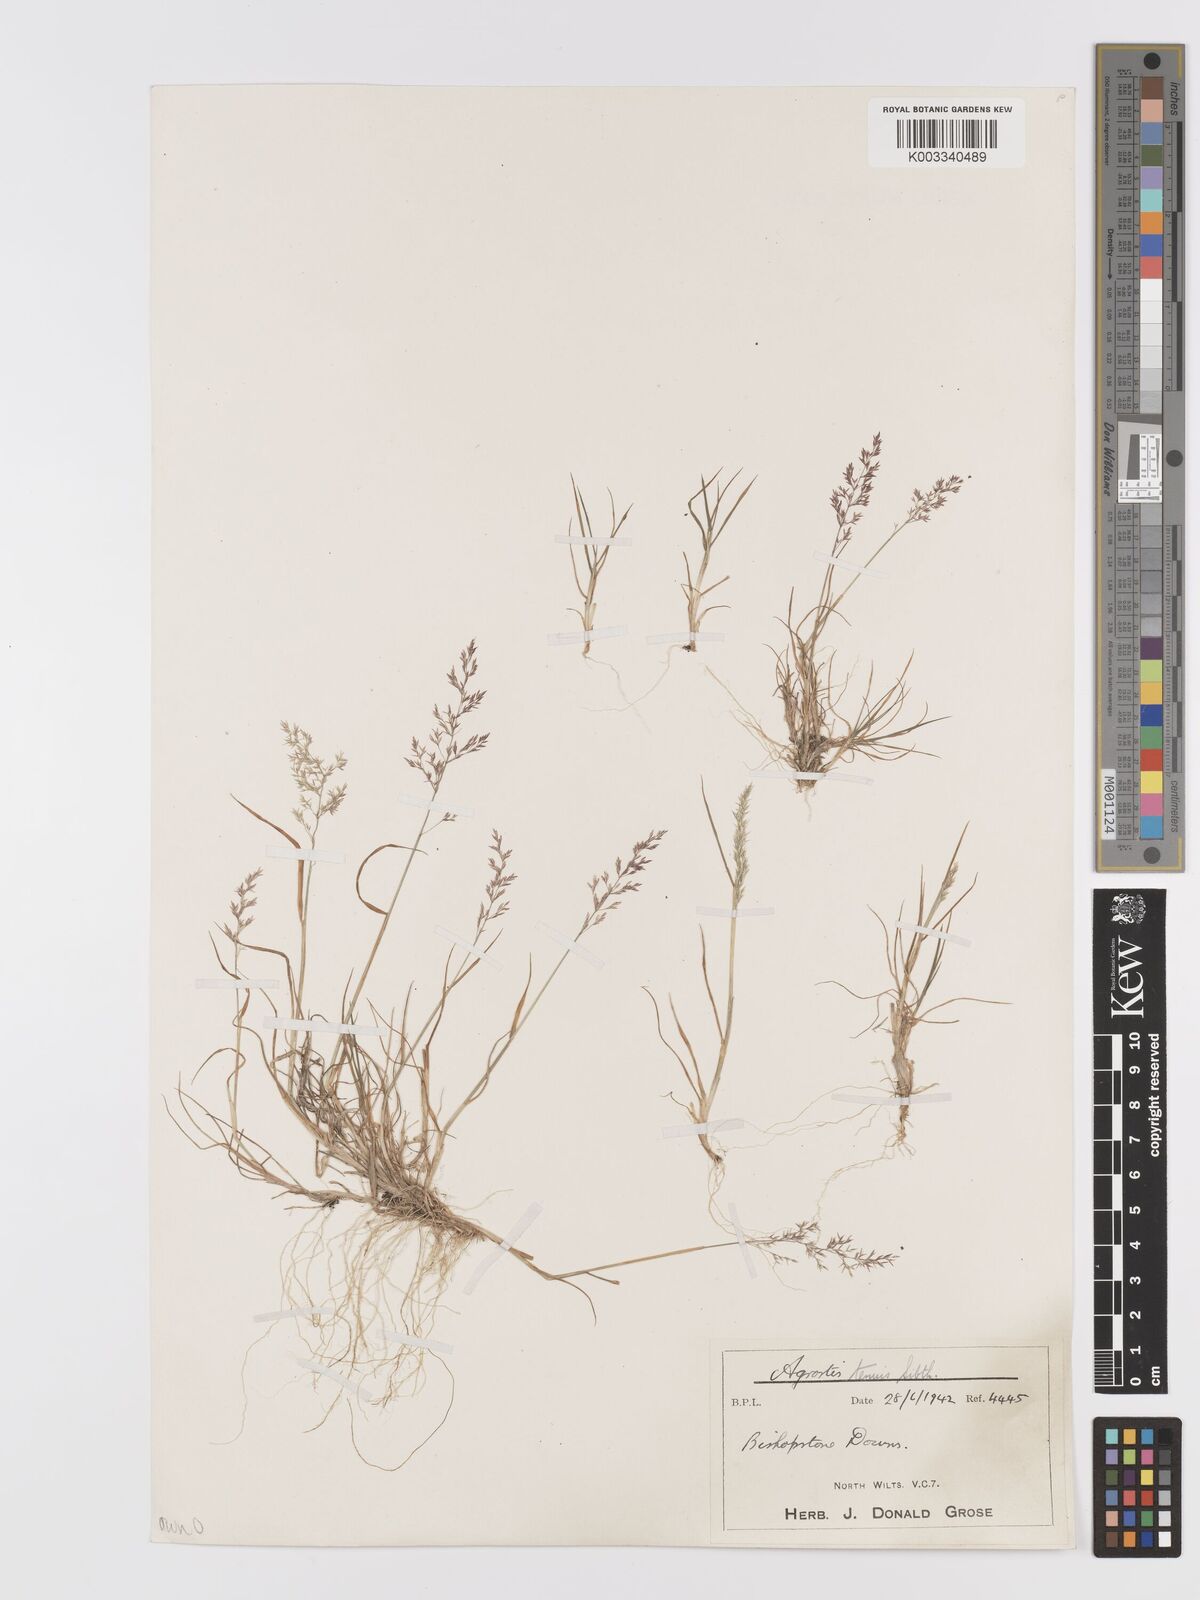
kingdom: Plantae
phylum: Tracheophyta
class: Liliopsida
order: Poales
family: Poaceae
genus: Agrostis
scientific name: Agrostis capillaris
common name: Colonial bentgrass
